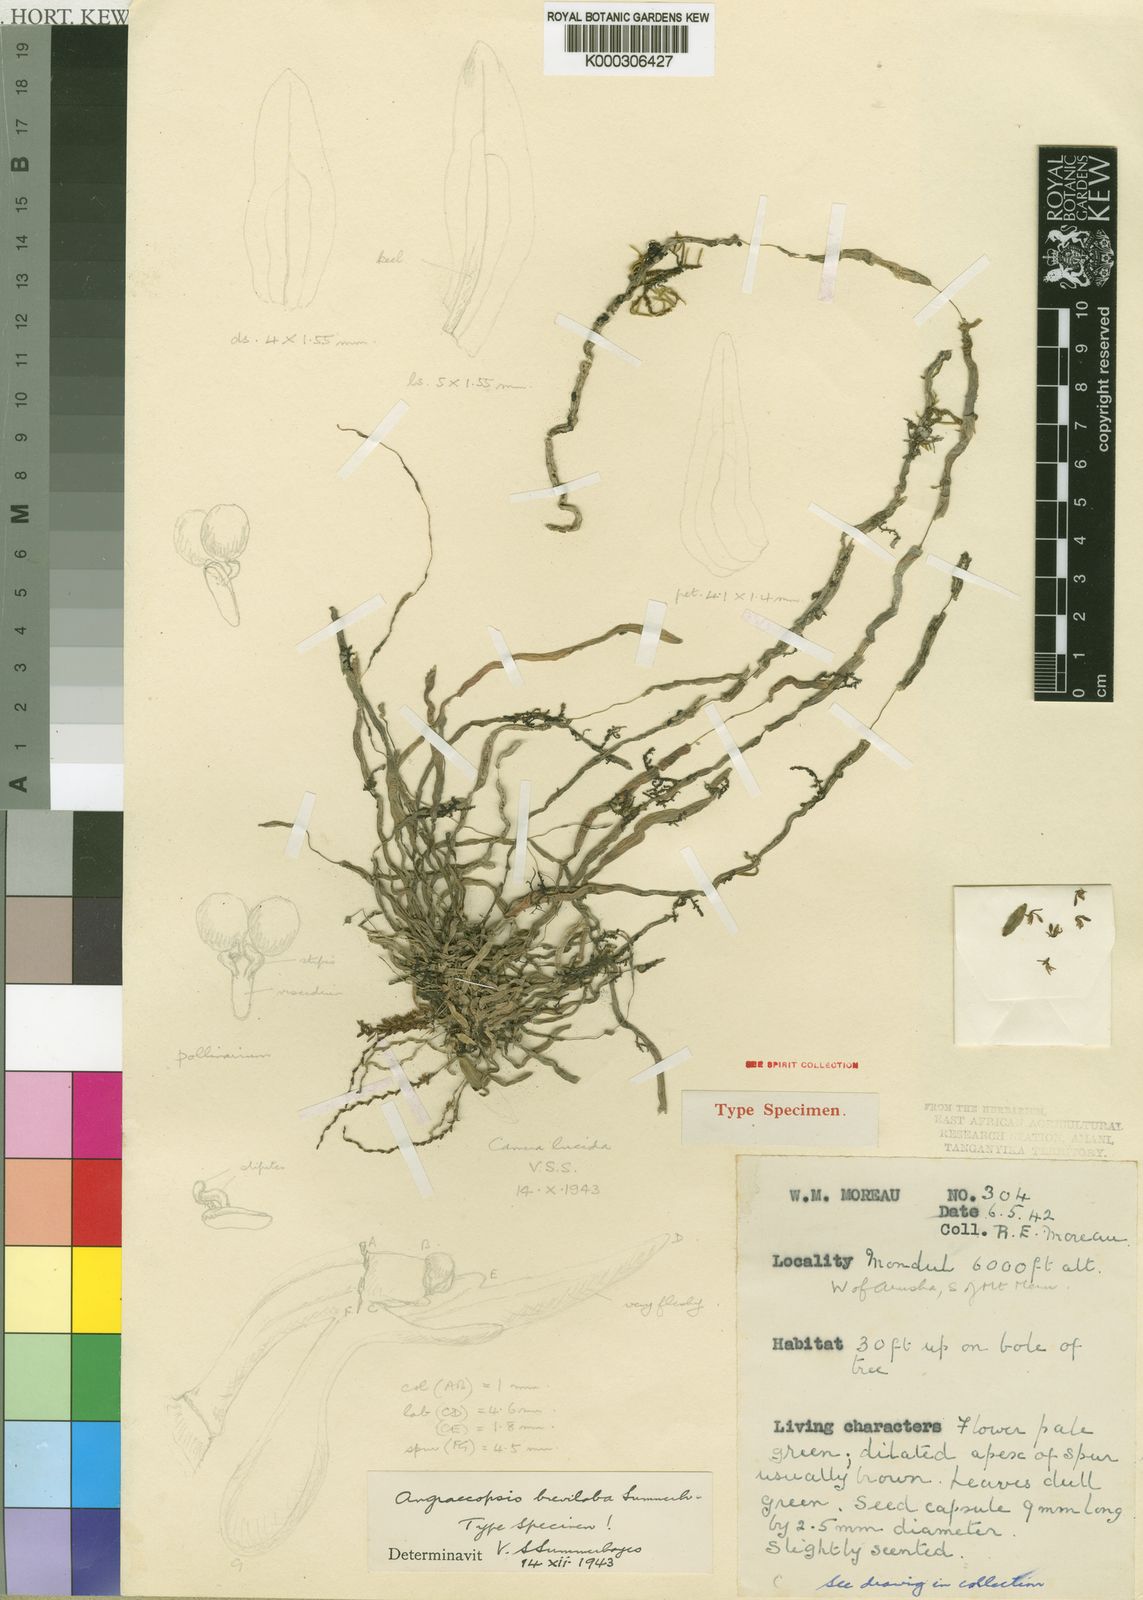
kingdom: Plantae
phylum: Tracheophyta
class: Liliopsida
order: Asparagales
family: Orchidaceae
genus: Angraecopsis
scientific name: Angraecopsis cryptantha
